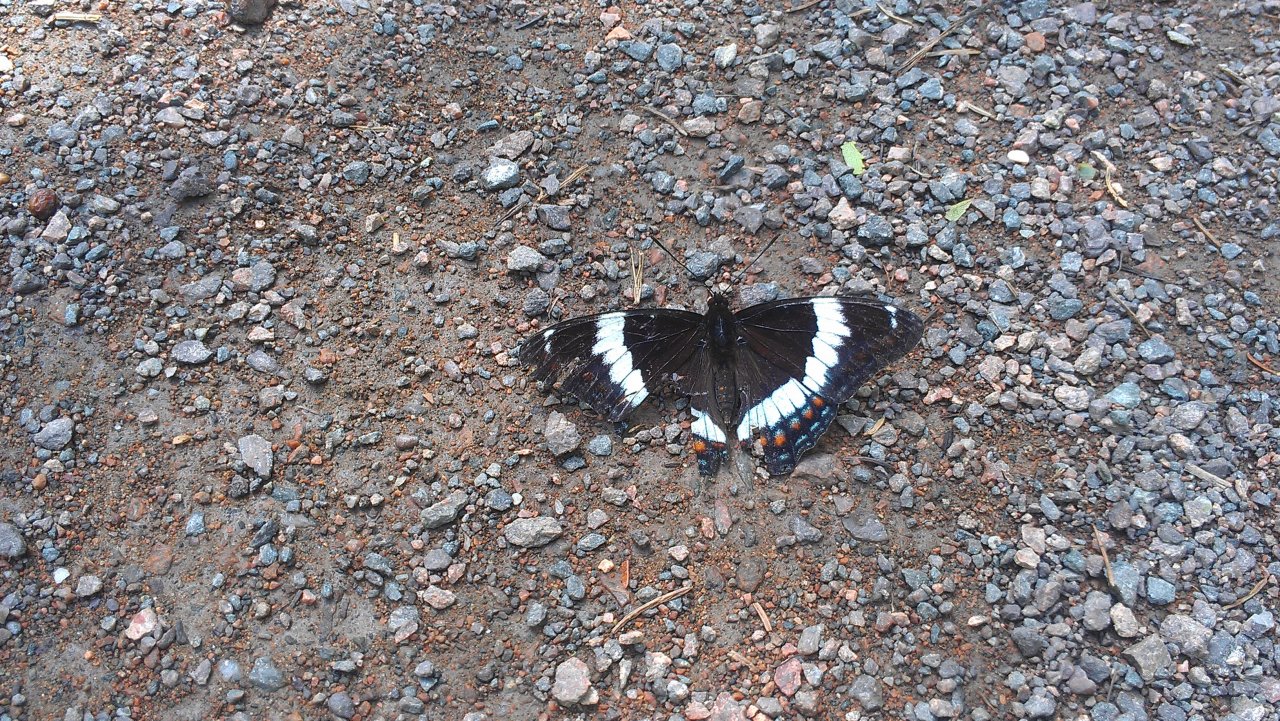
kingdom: Animalia
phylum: Arthropoda
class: Insecta
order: Lepidoptera
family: Nymphalidae
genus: Limenitis
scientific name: Limenitis arthemis
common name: Red-spotted Admiral
